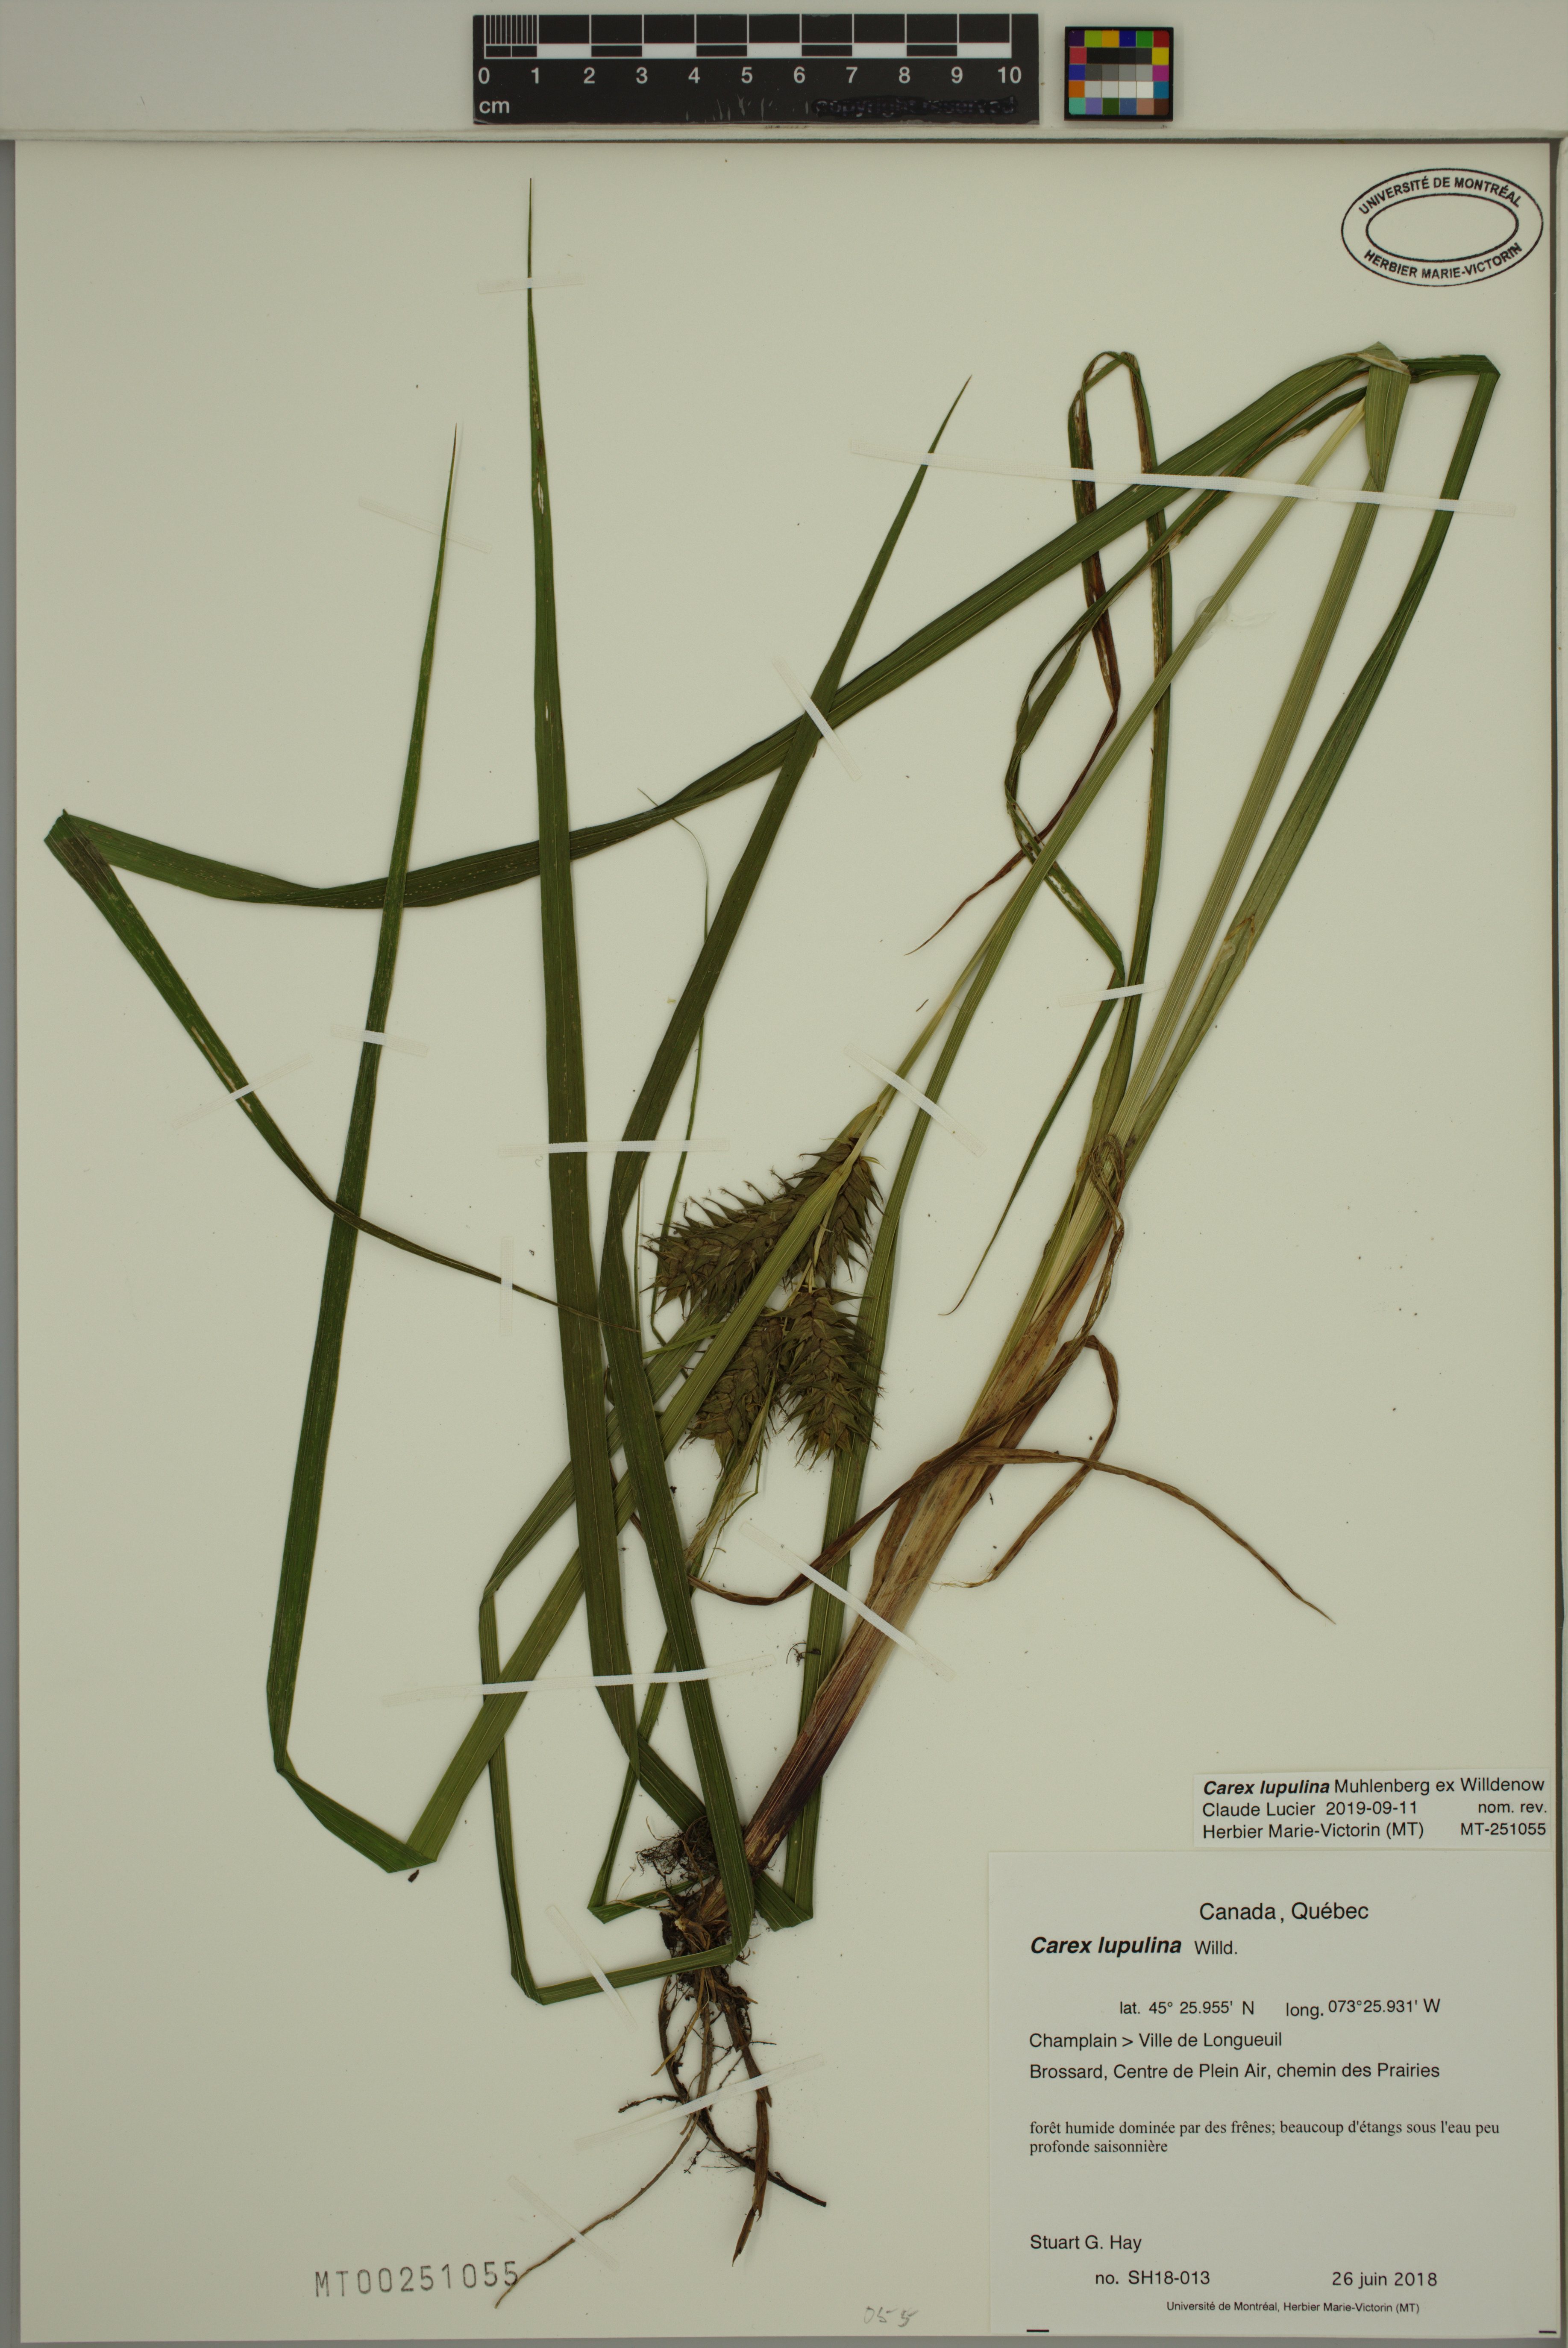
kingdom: Plantae
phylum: Tracheophyta
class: Liliopsida
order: Poales
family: Cyperaceae
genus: Carex
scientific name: Carex lupulina
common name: Hop sedge
